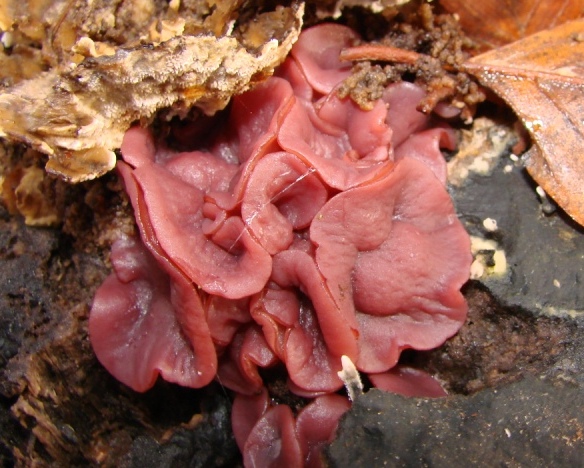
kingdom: Fungi
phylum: Ascomycota
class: Leotiomycetes
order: Helotiales
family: Gelatinodiscaceae
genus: Ascocoryne
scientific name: Ascocoryne cylichnium
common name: stor sejskive
